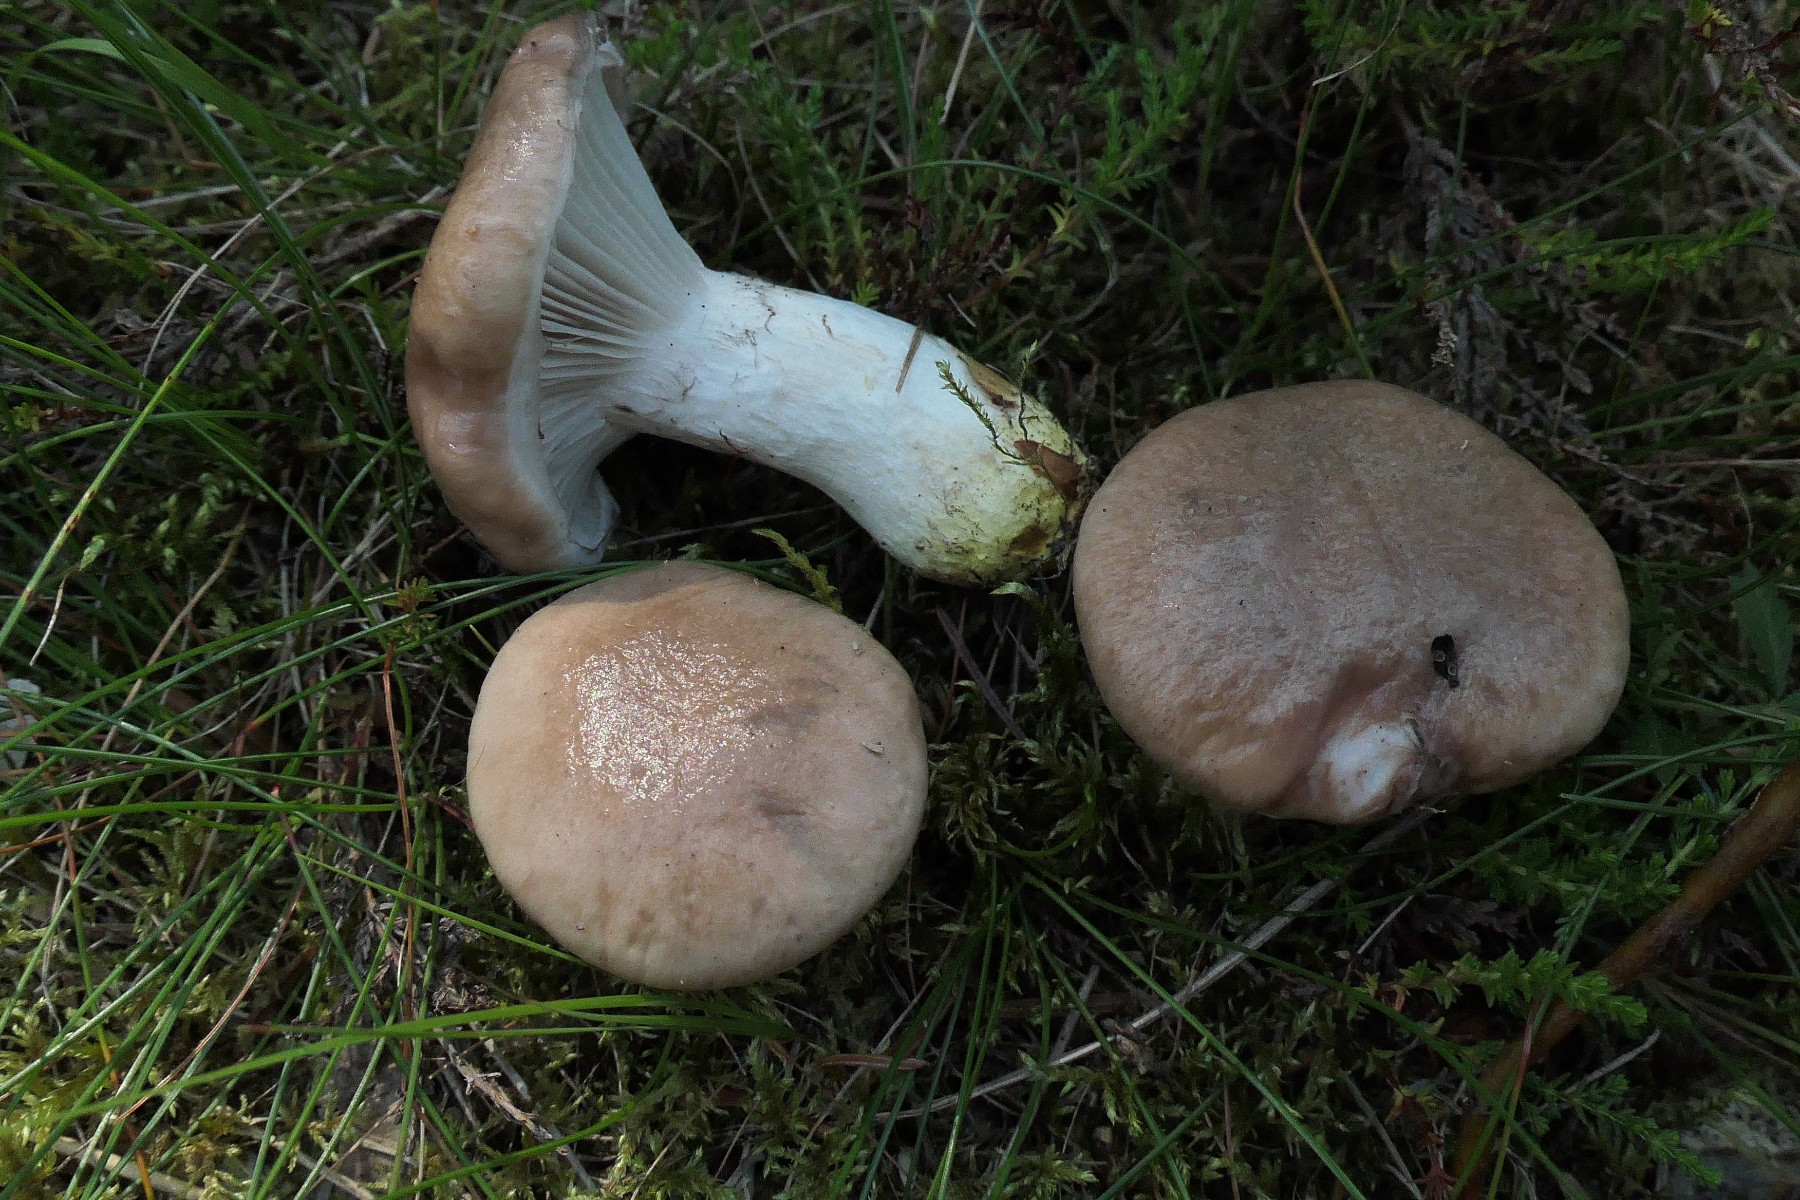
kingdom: Fungi
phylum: Basidiomycota
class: Agaricomycetes
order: Boletales
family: Gomphidiaceae
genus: Gomphidius
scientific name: Gomphidius glutinosus
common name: grå slimslør
